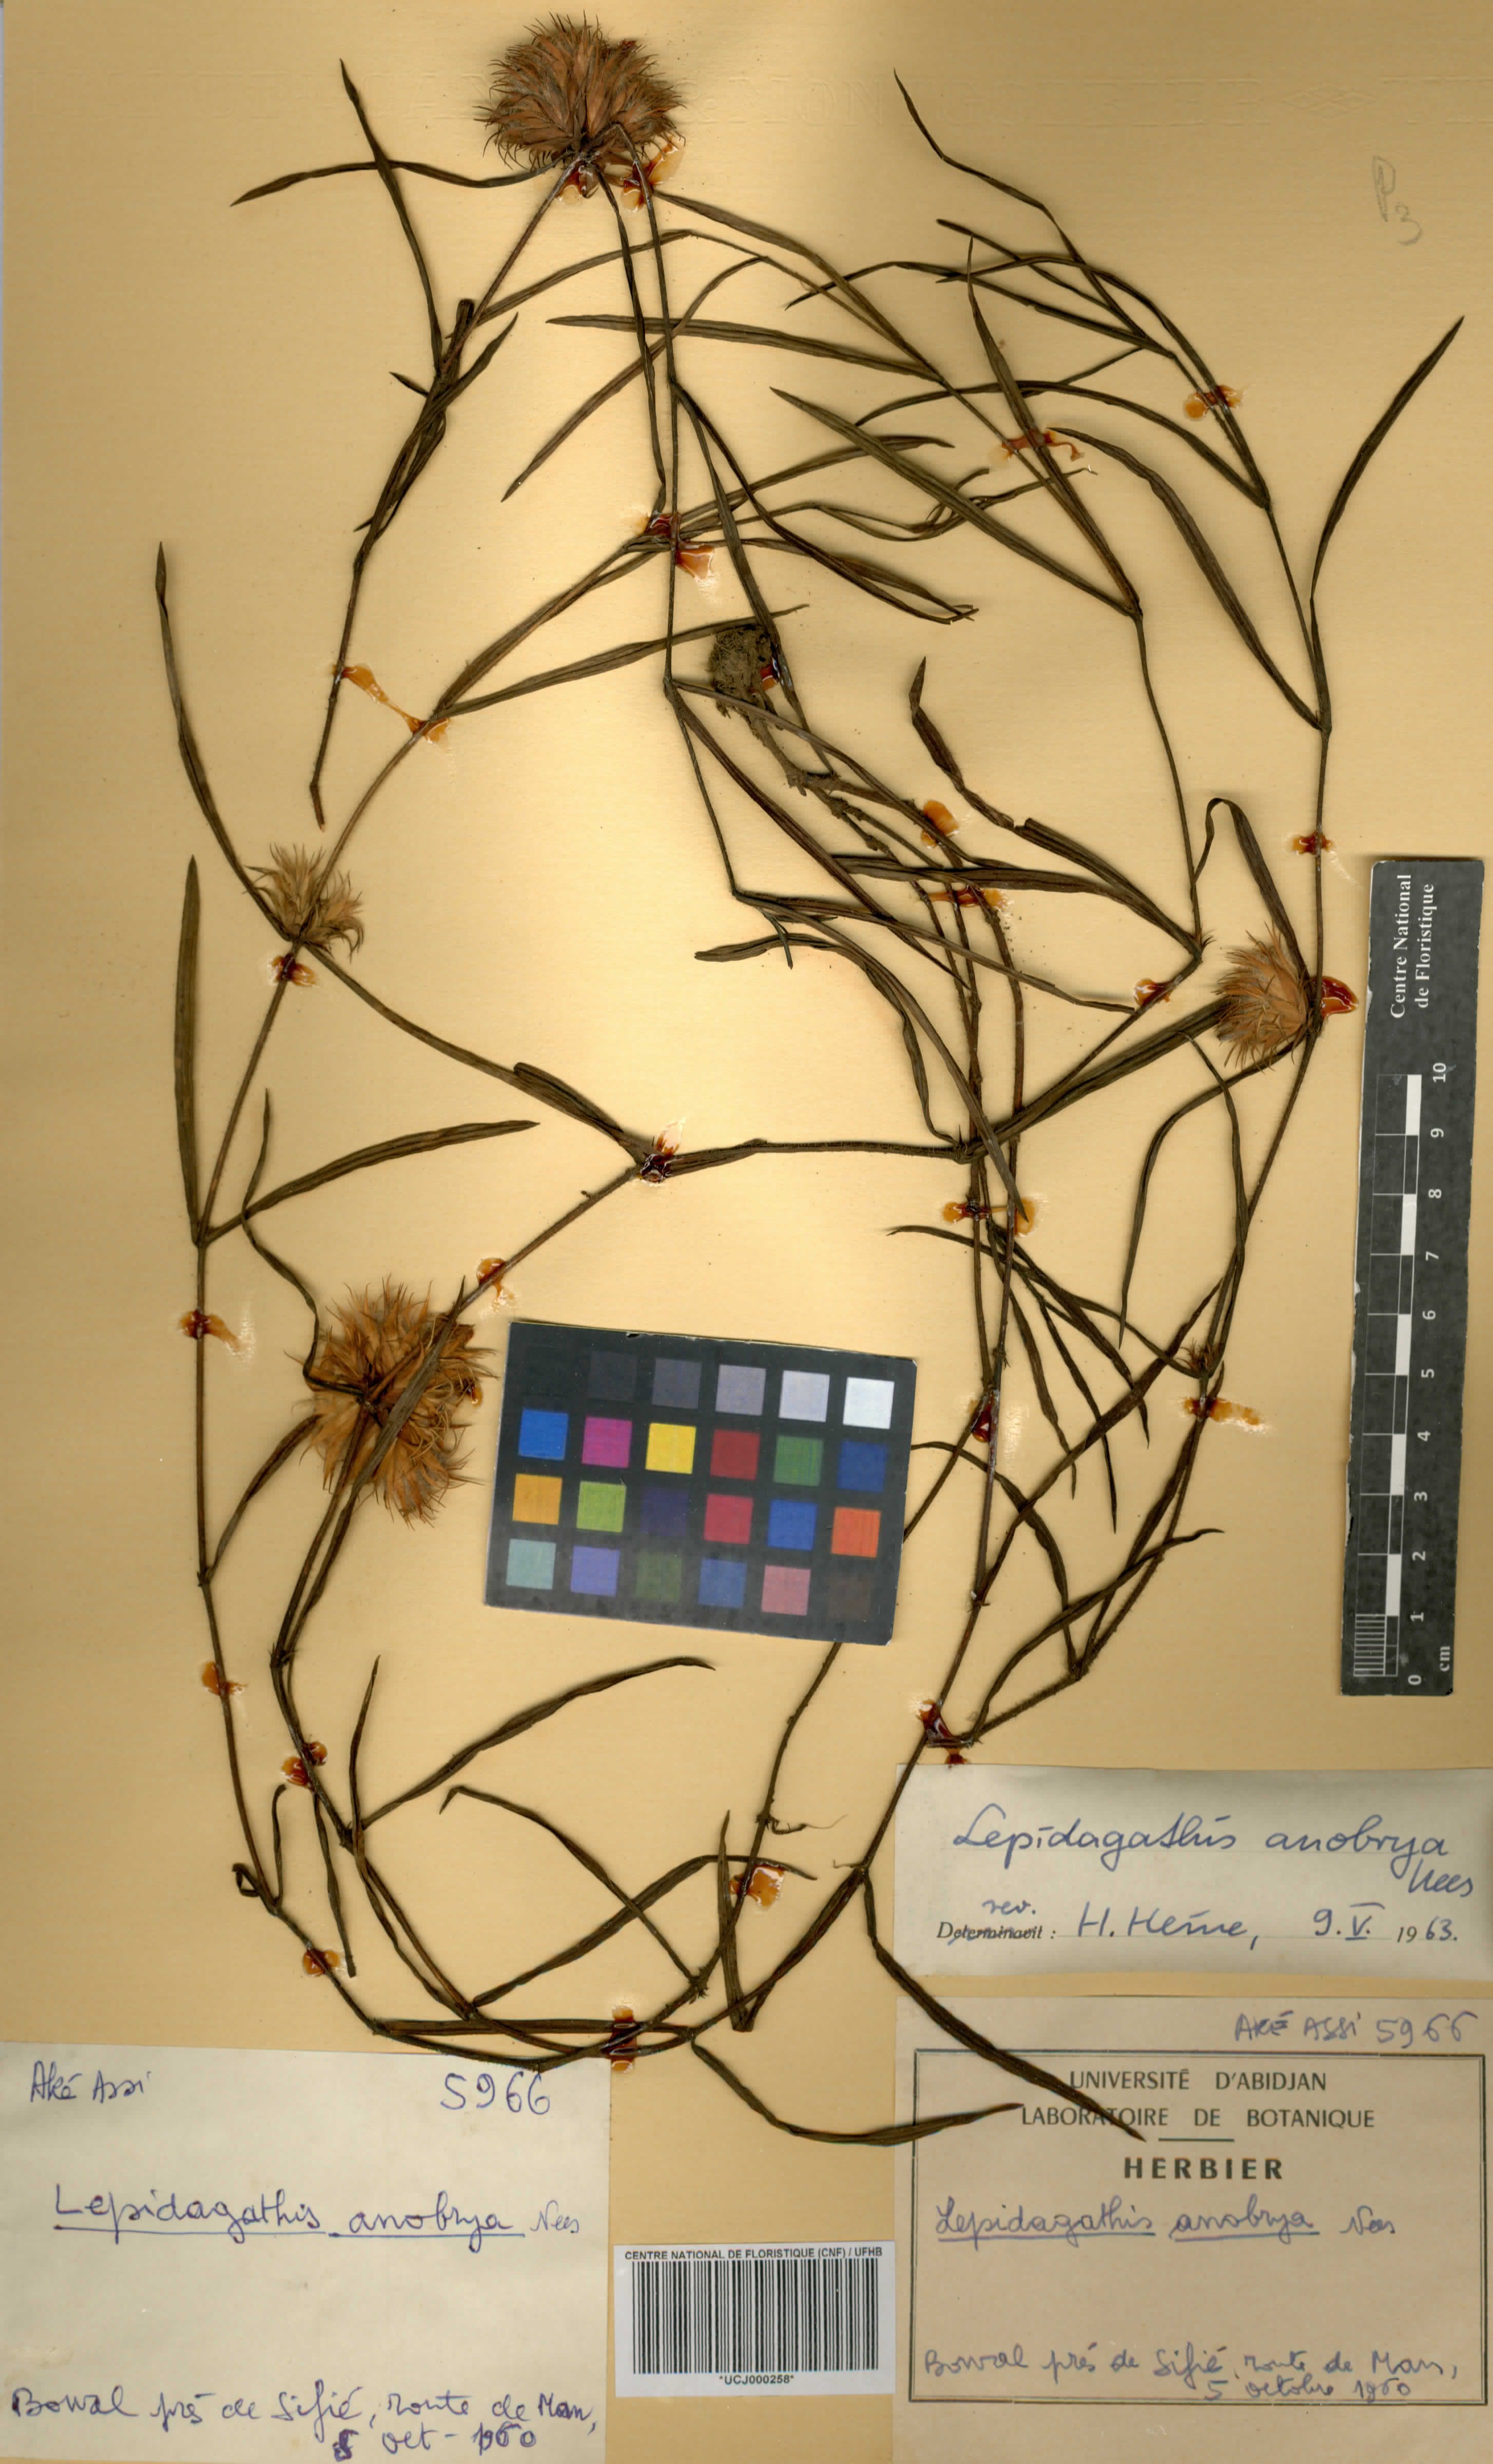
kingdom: Plantae
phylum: Tracheophyta
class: Magnoliopsida
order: Lamiales
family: Acanthaceae
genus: Lepidagathis
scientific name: Lepidagathis anobrya
